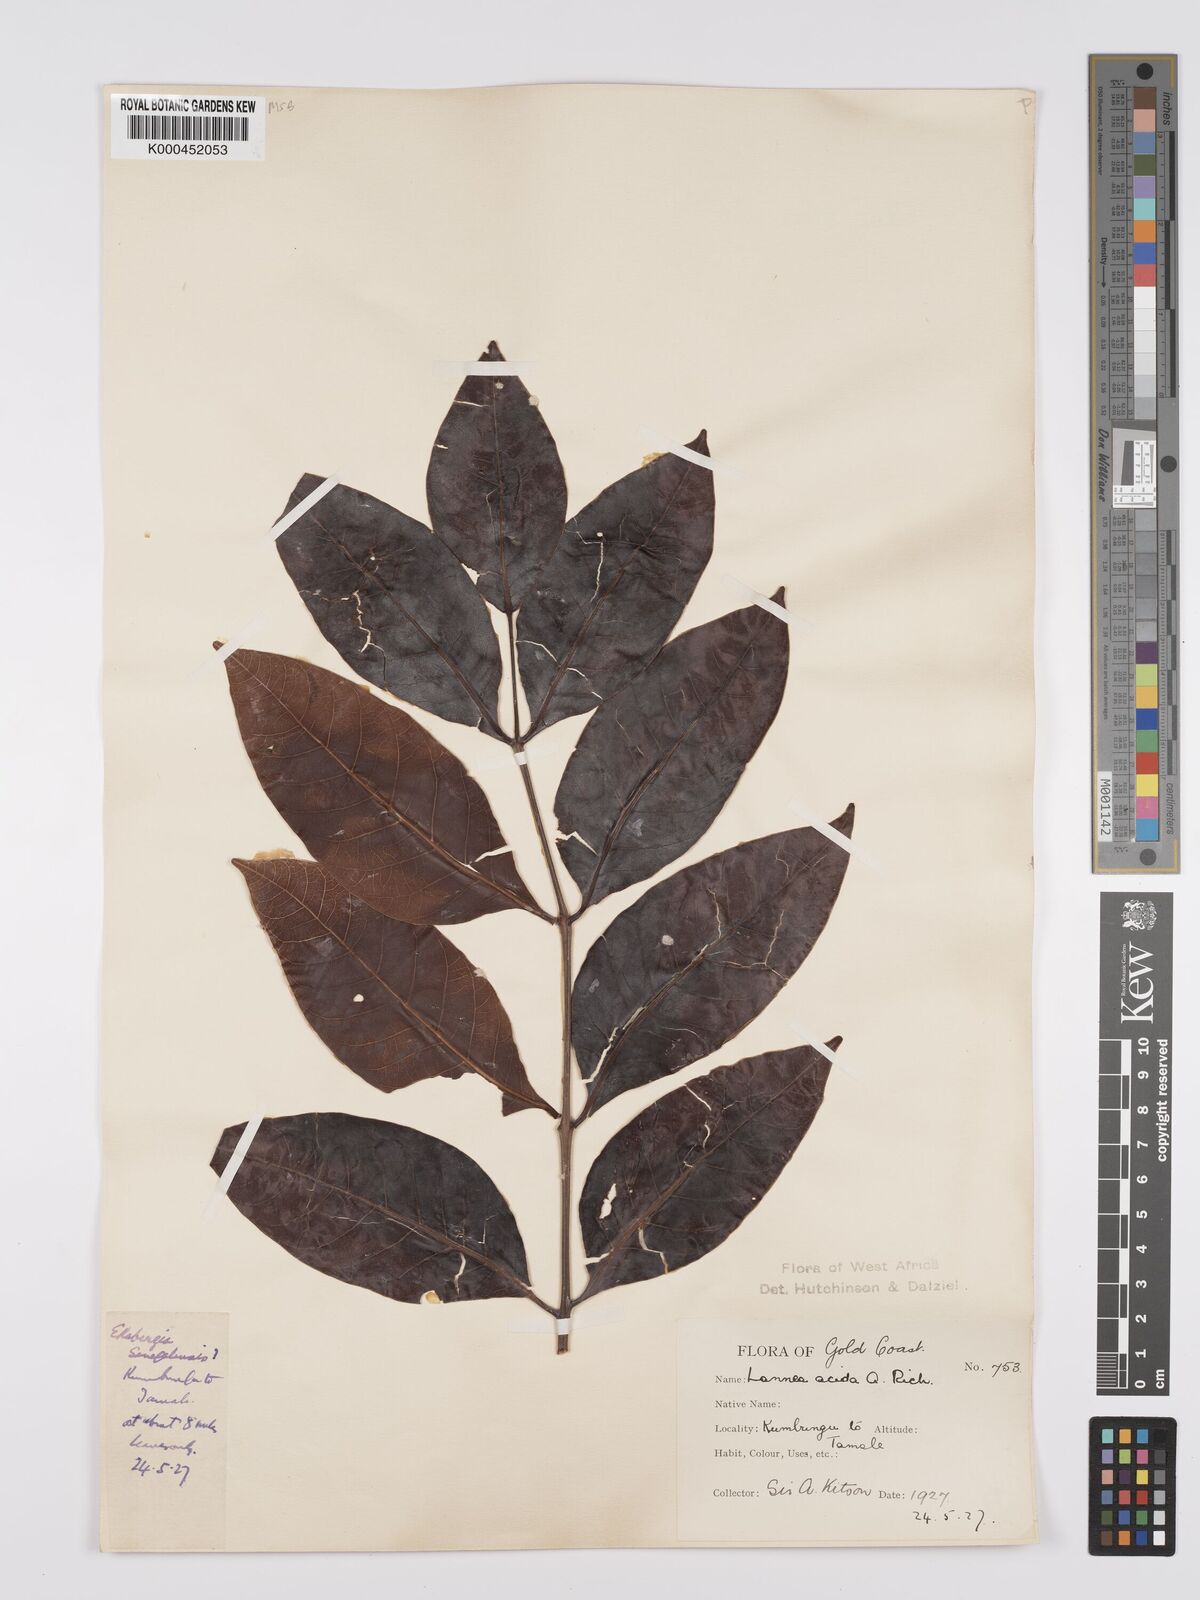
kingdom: Plantae
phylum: Tracheophyta
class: Magnoliopsida
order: Sapindales
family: Anacardiaceae
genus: Lannea
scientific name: Lannea microcarpa
